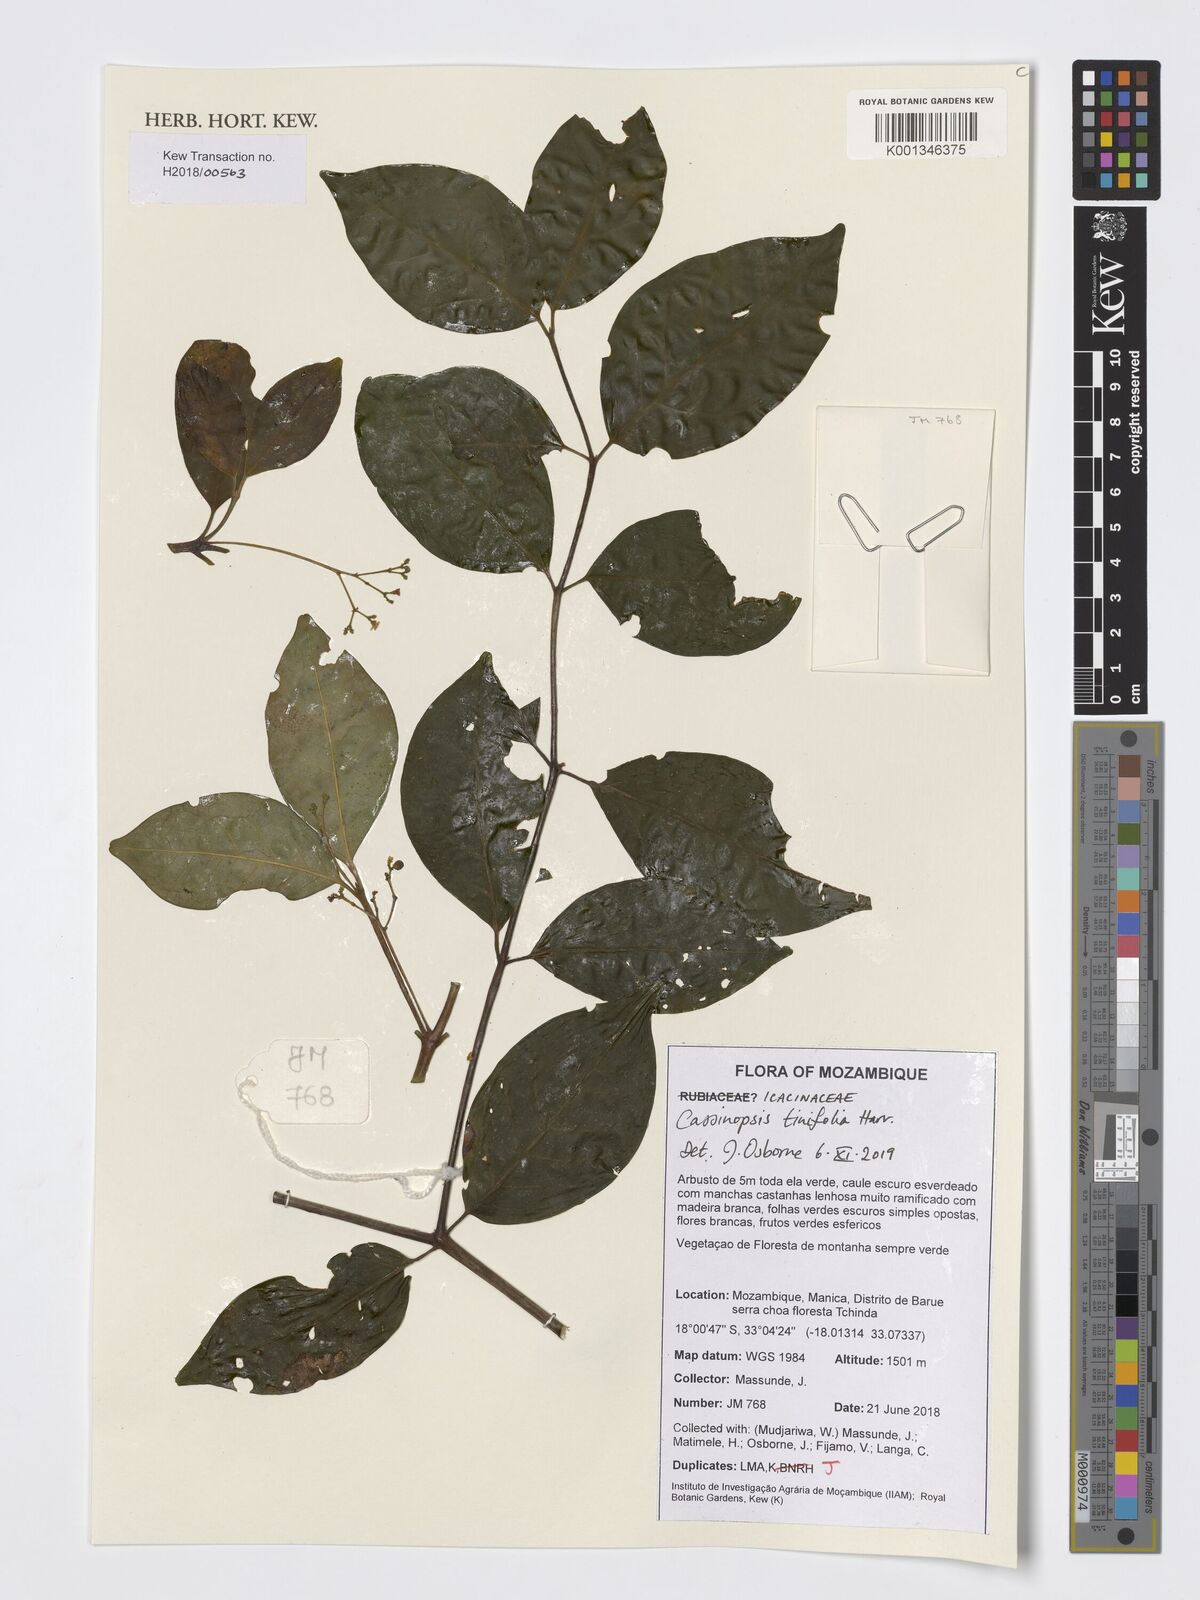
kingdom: Plantae
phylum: Tracheophyta
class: Magnoliopsida
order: Icacinales
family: Icacinaceae
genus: Cassinopsis
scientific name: Cassinopsis tinifolia
